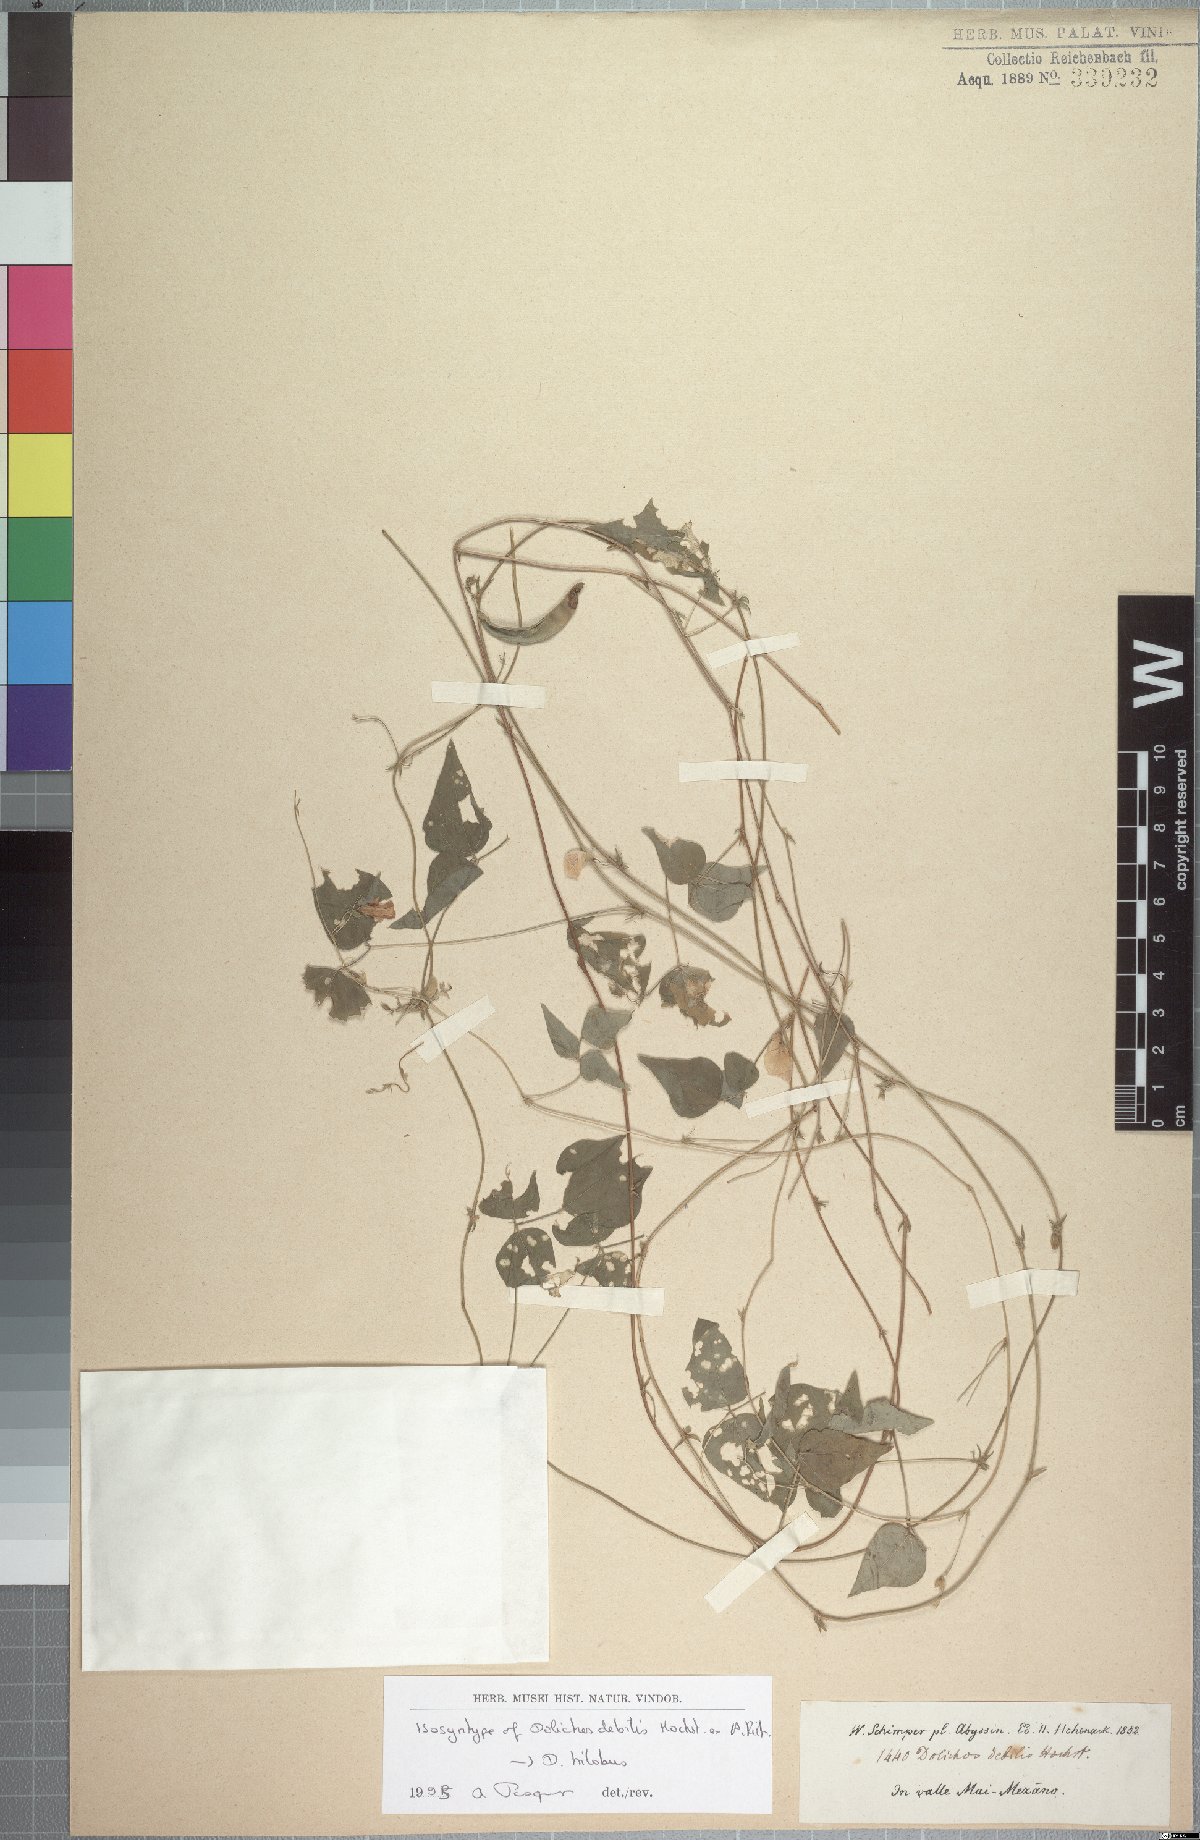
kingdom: Plantae
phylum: Tracheophyta
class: Magnoliopsida
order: Fabales
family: Fabaceae
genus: Dolichos
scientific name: Dolichos trilobus
